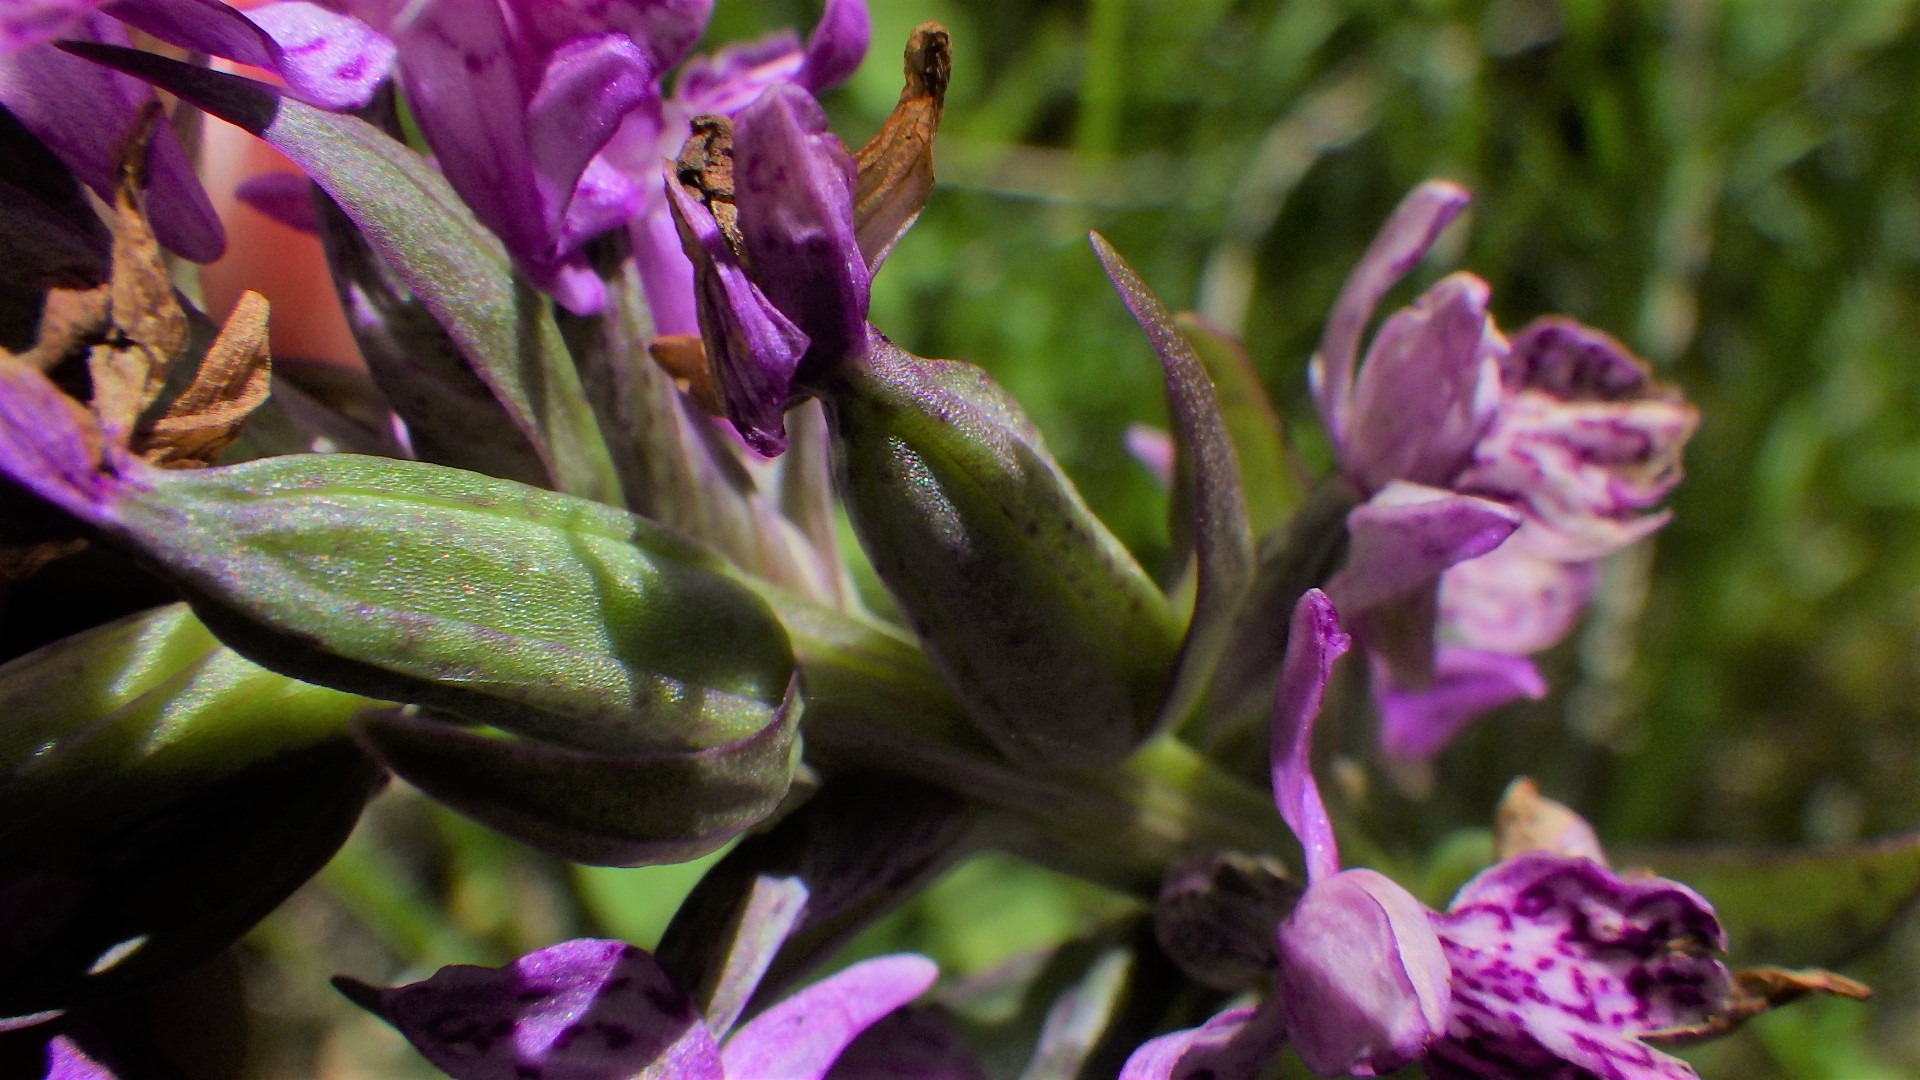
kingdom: Plantae
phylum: Tracheophyta
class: Liliopsida
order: Asparagales
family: Orchidaceae
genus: Dactylorhiza
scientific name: Dactylorhiza majalis
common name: Vendsyssel-gøgeurt
